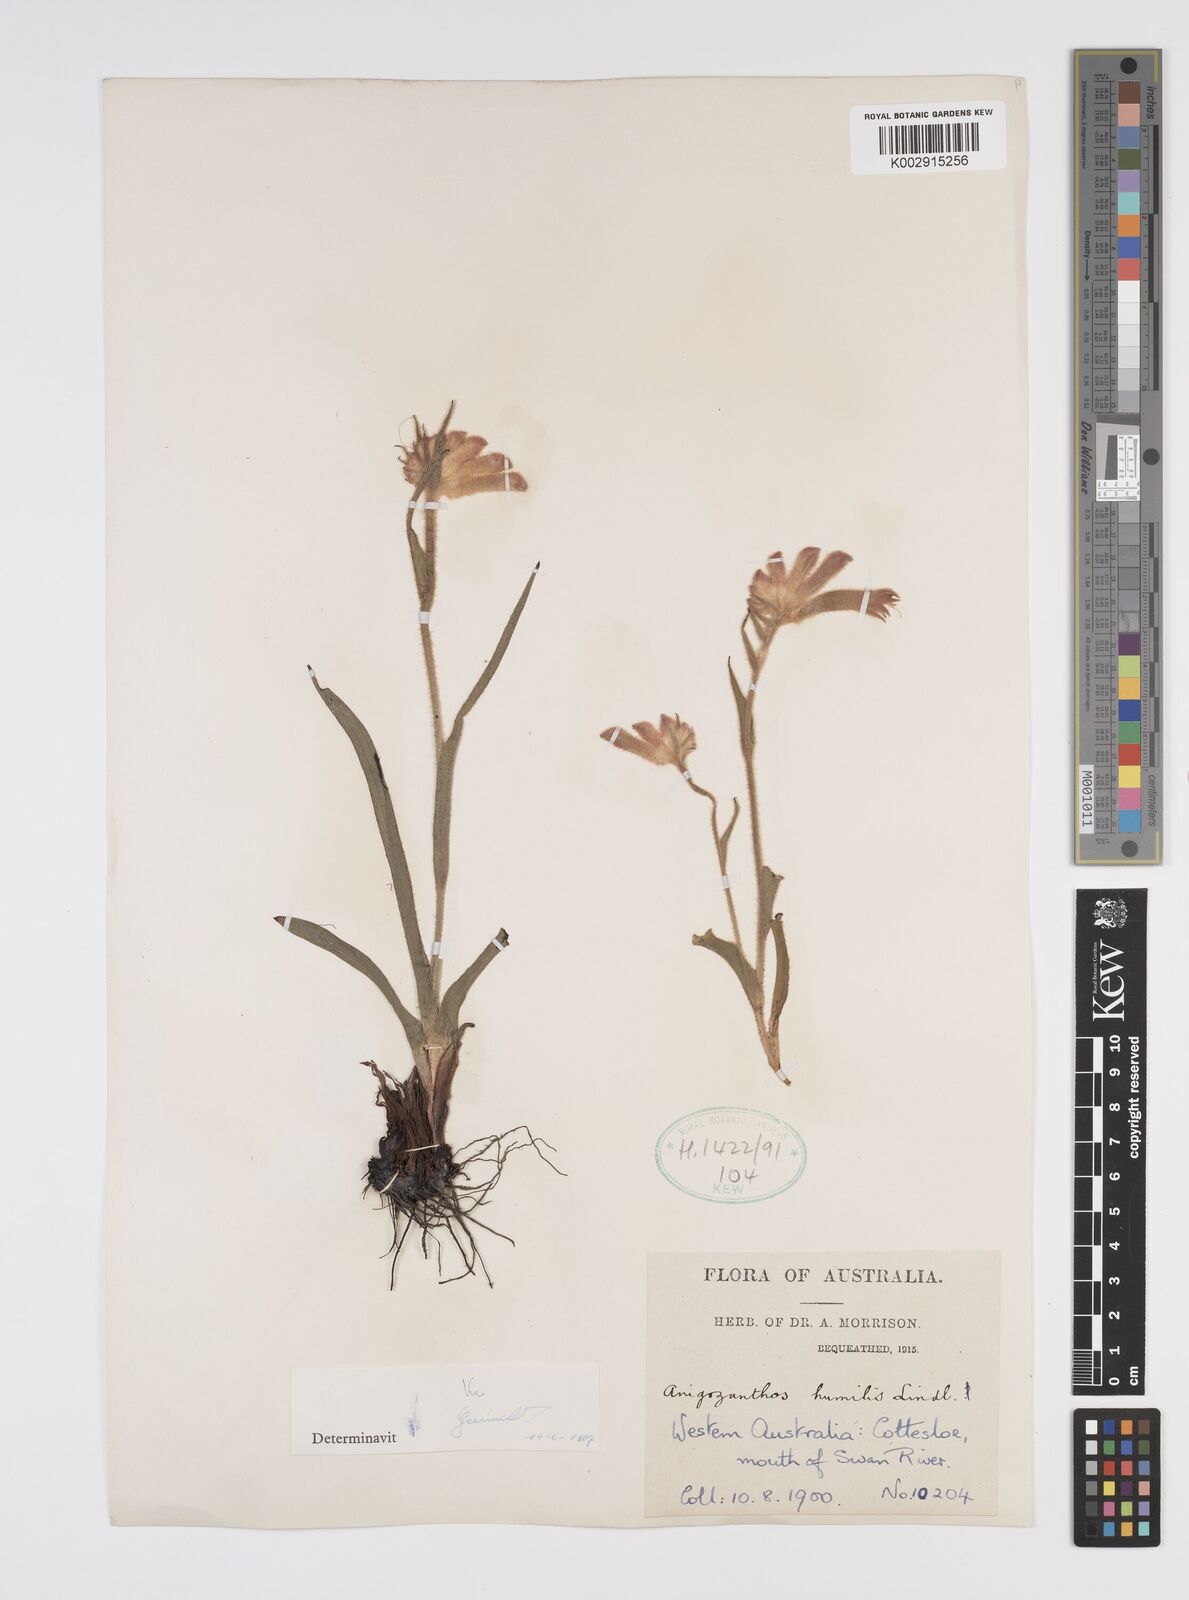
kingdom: Plantae
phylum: Tracheophyta
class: Liliopsida
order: Commelinales
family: Haemodoraceae
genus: Anigozanthos
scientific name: Anigozanthos humilis
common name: Cat's-paw
